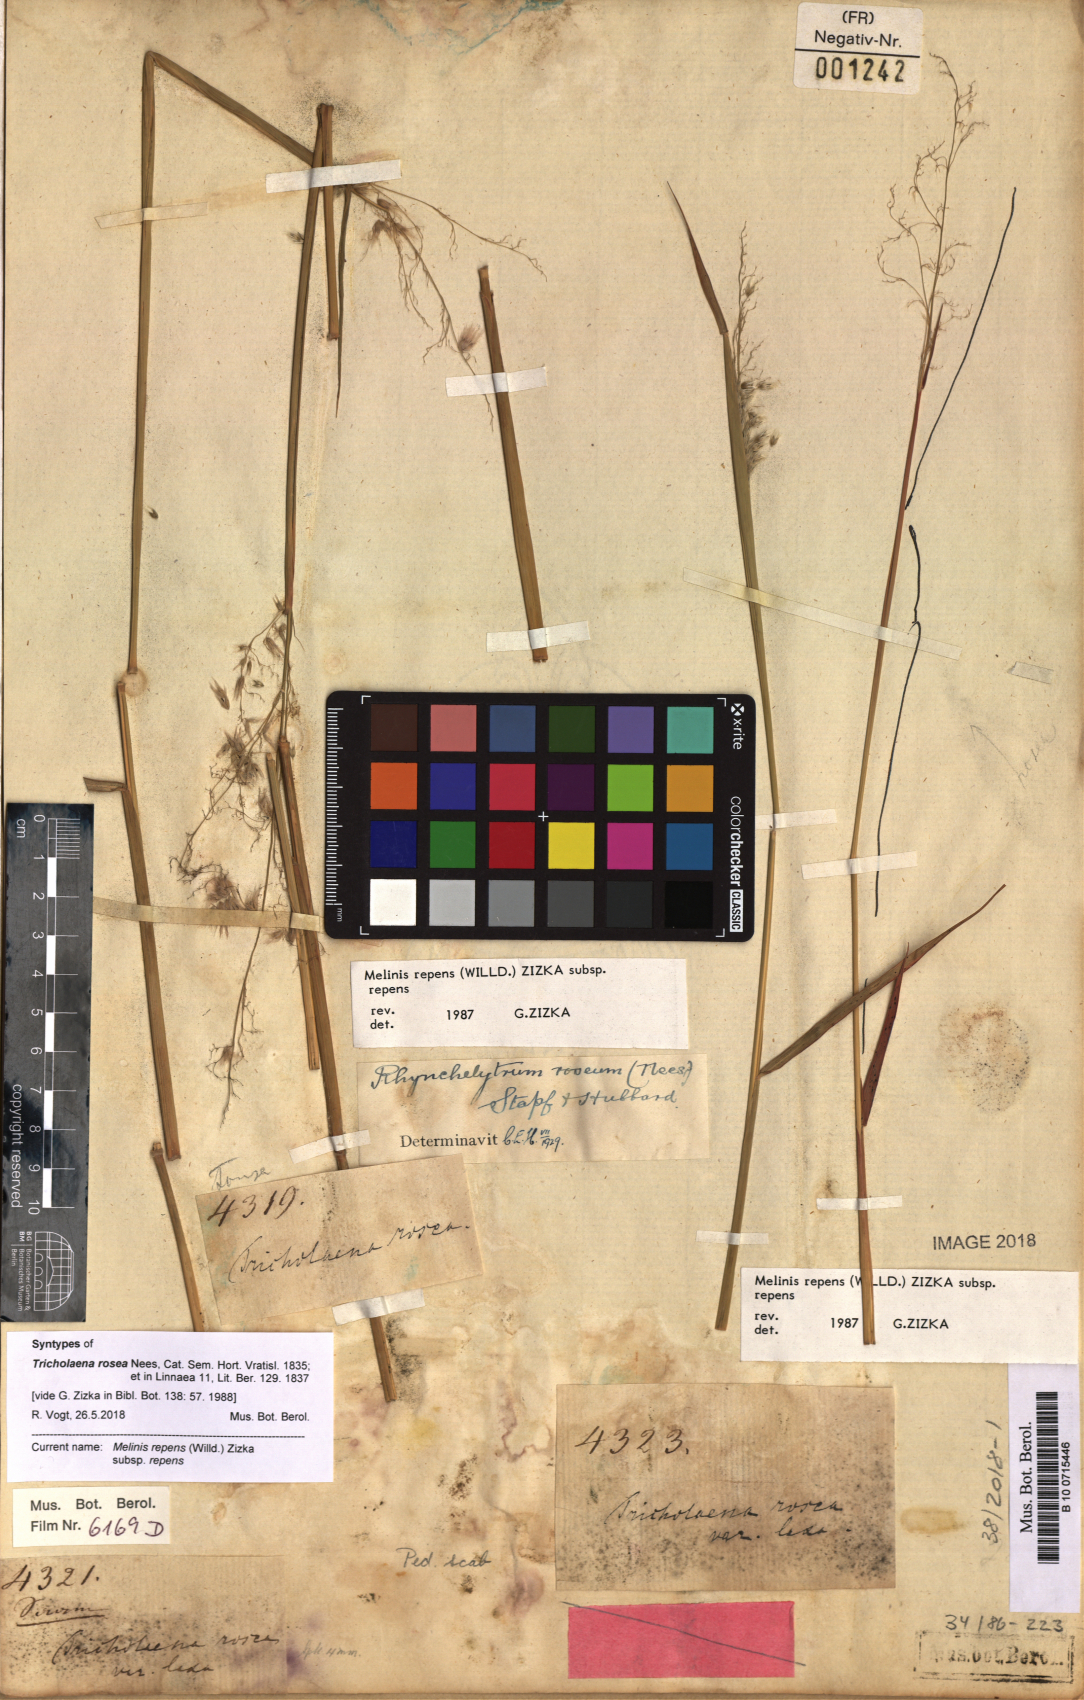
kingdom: Plantae
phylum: Tracheophyta
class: Liliopsida
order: Poales
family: Poaceae
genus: Melinis
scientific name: Melinis repens
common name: Rose natal grass
